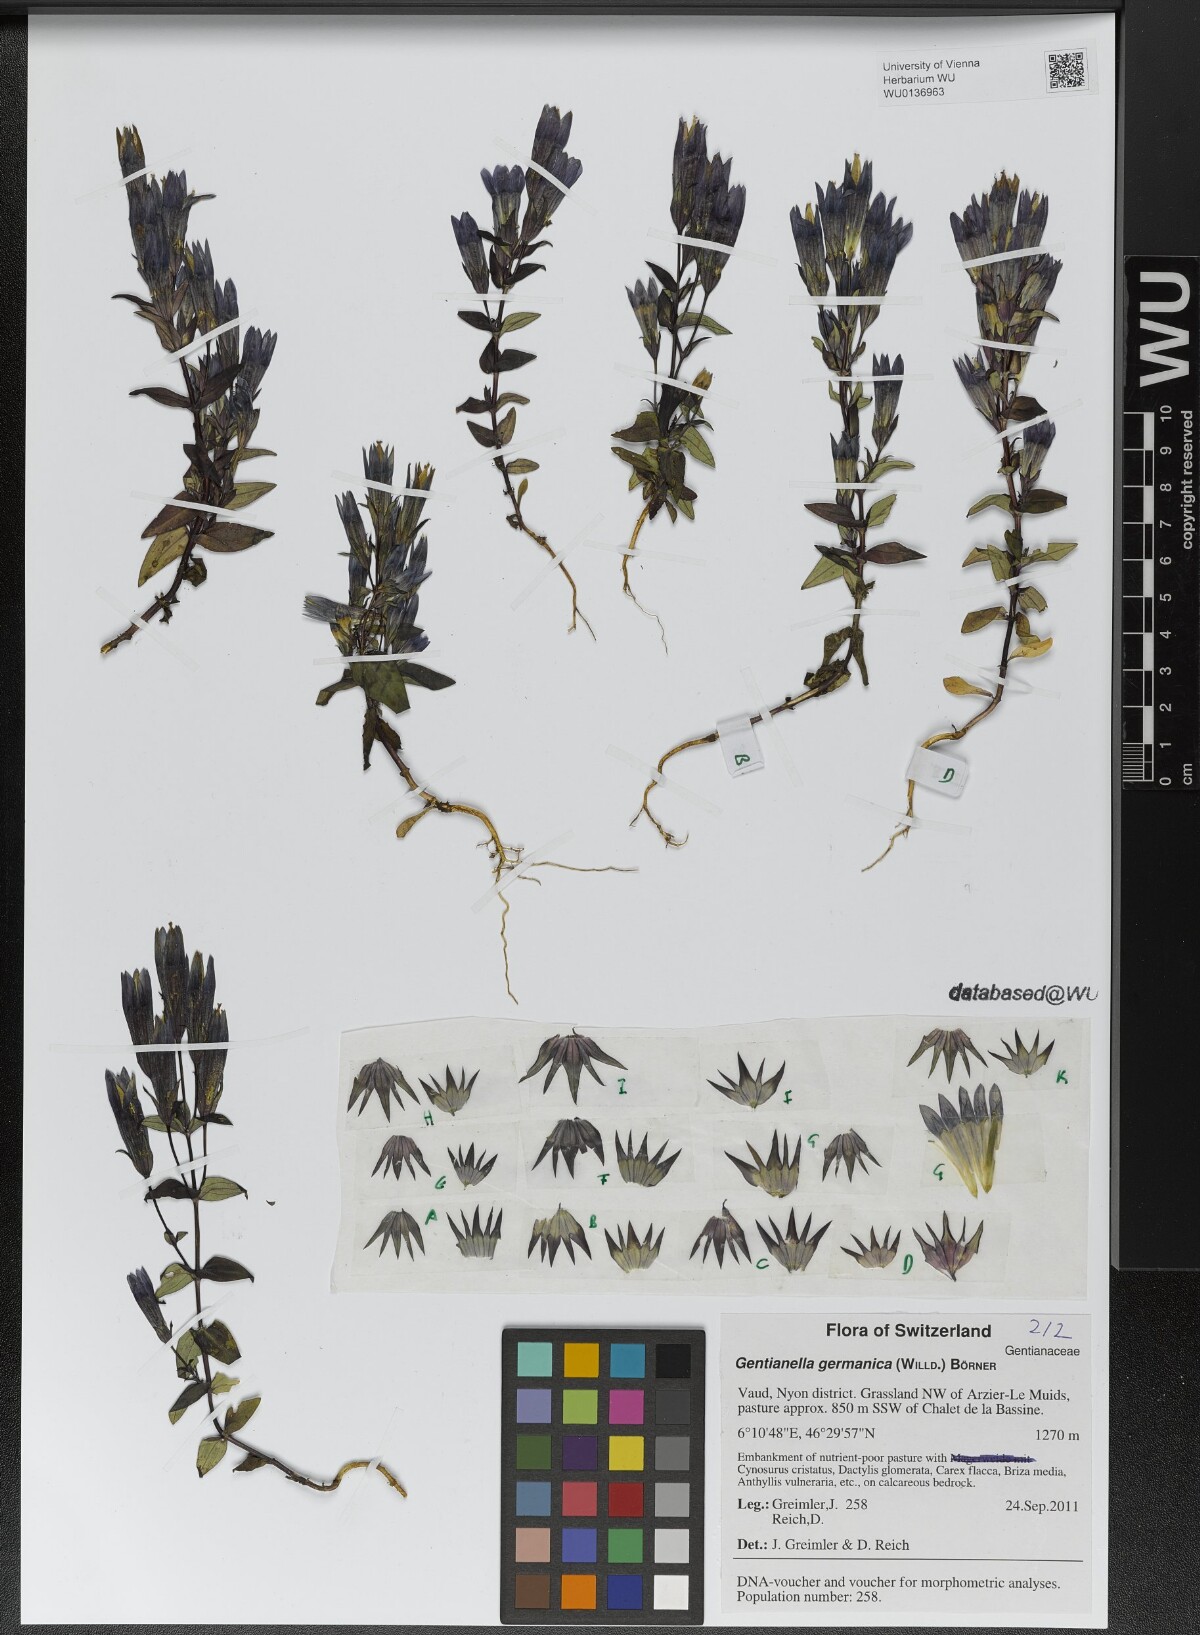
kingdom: Plantae
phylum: Tracheophyta
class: Magnoliopsida
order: Gentianales
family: Gentianaceae
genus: Gentianella
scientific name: Gentianella germanica
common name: Chiltern-gentian
